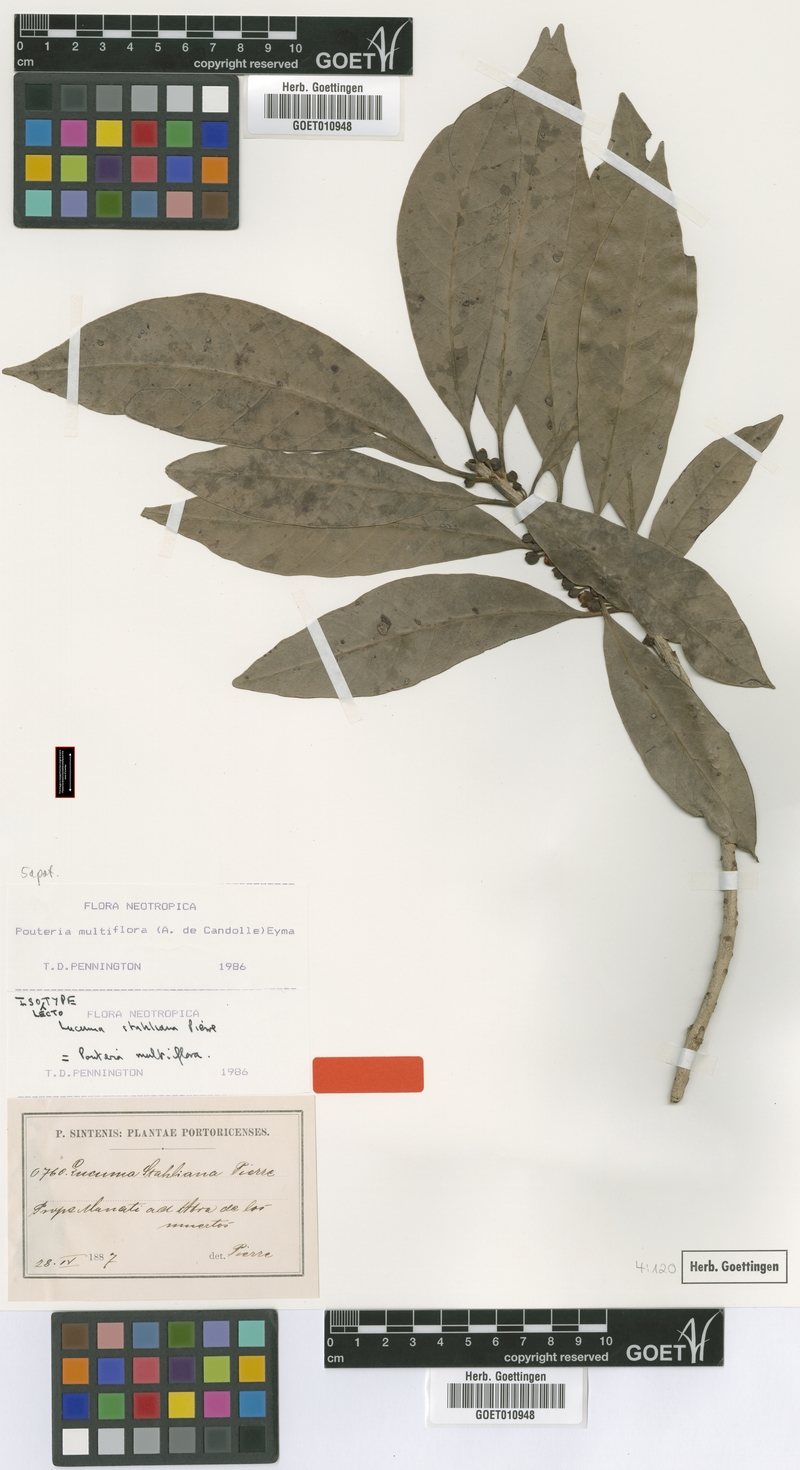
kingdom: Plantae
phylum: Tracheophyta
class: Magnoliopsida
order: Ericales
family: Sapotaceae
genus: Pouteria
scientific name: Pouteria multiflora
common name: Bullytree
